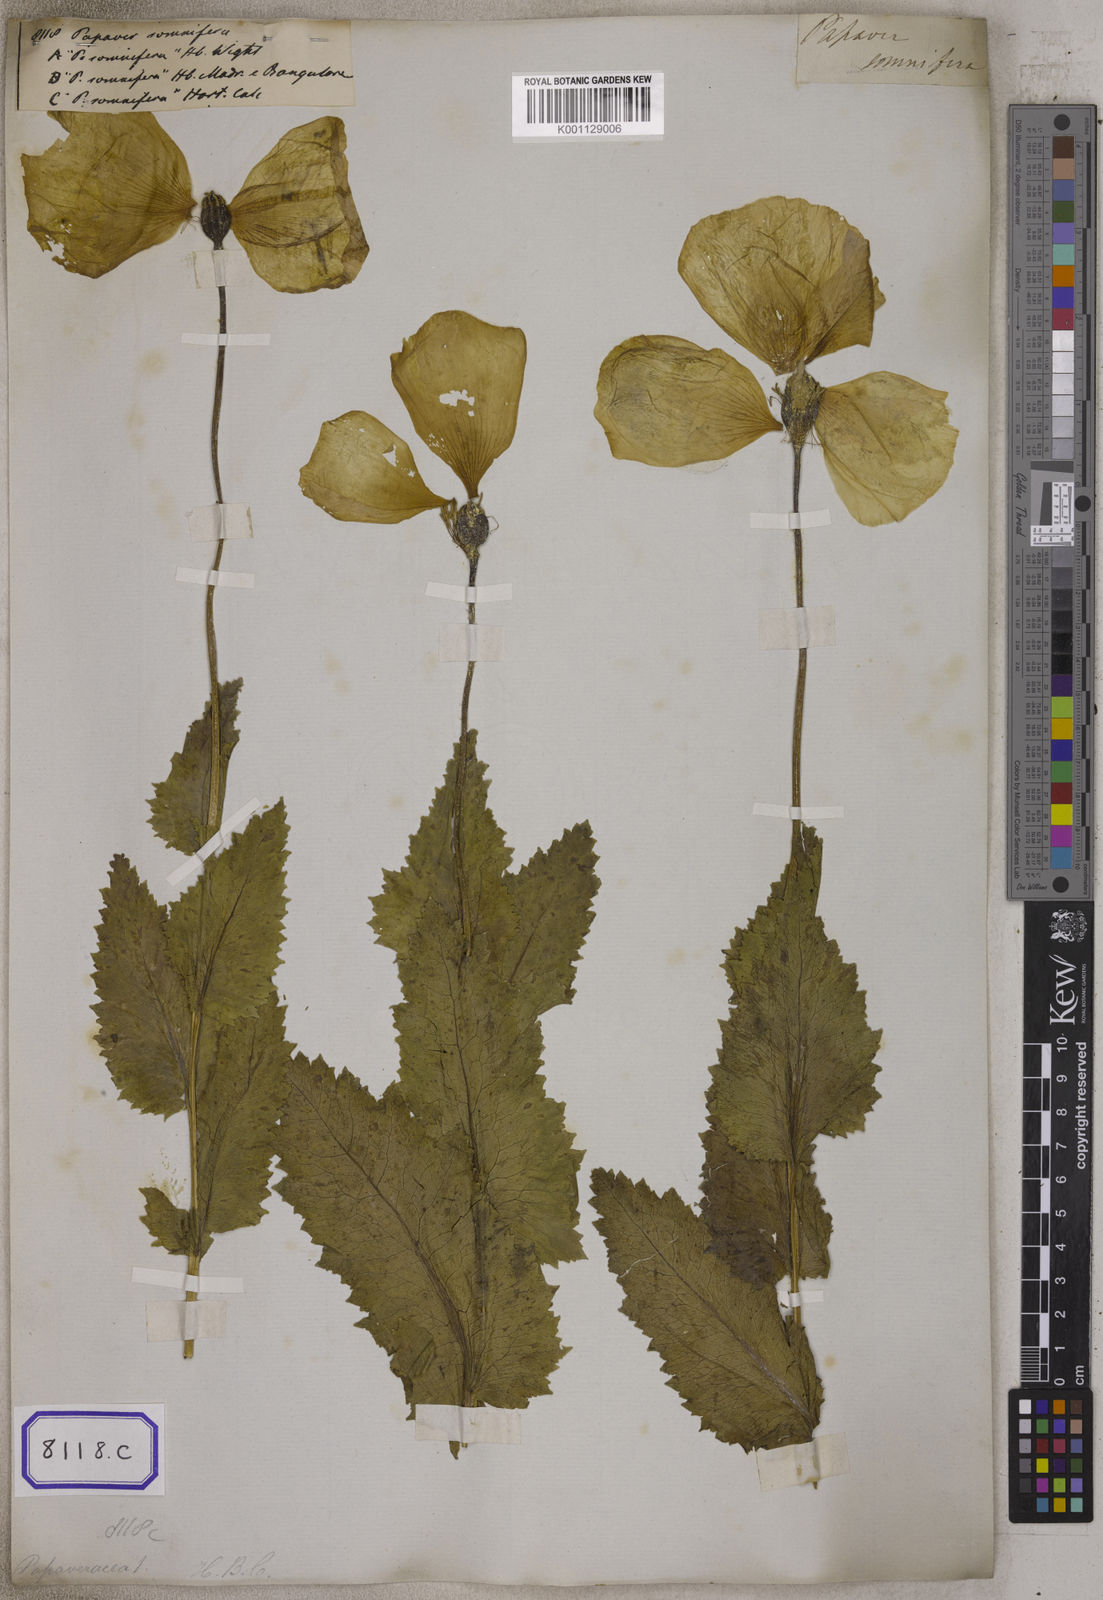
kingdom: Plantae
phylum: Tracheophyta
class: Magnoliopsida
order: Ranunculales
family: Papaveraceae
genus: Papaver
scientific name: Papaver somniferum
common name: Opium poppy
